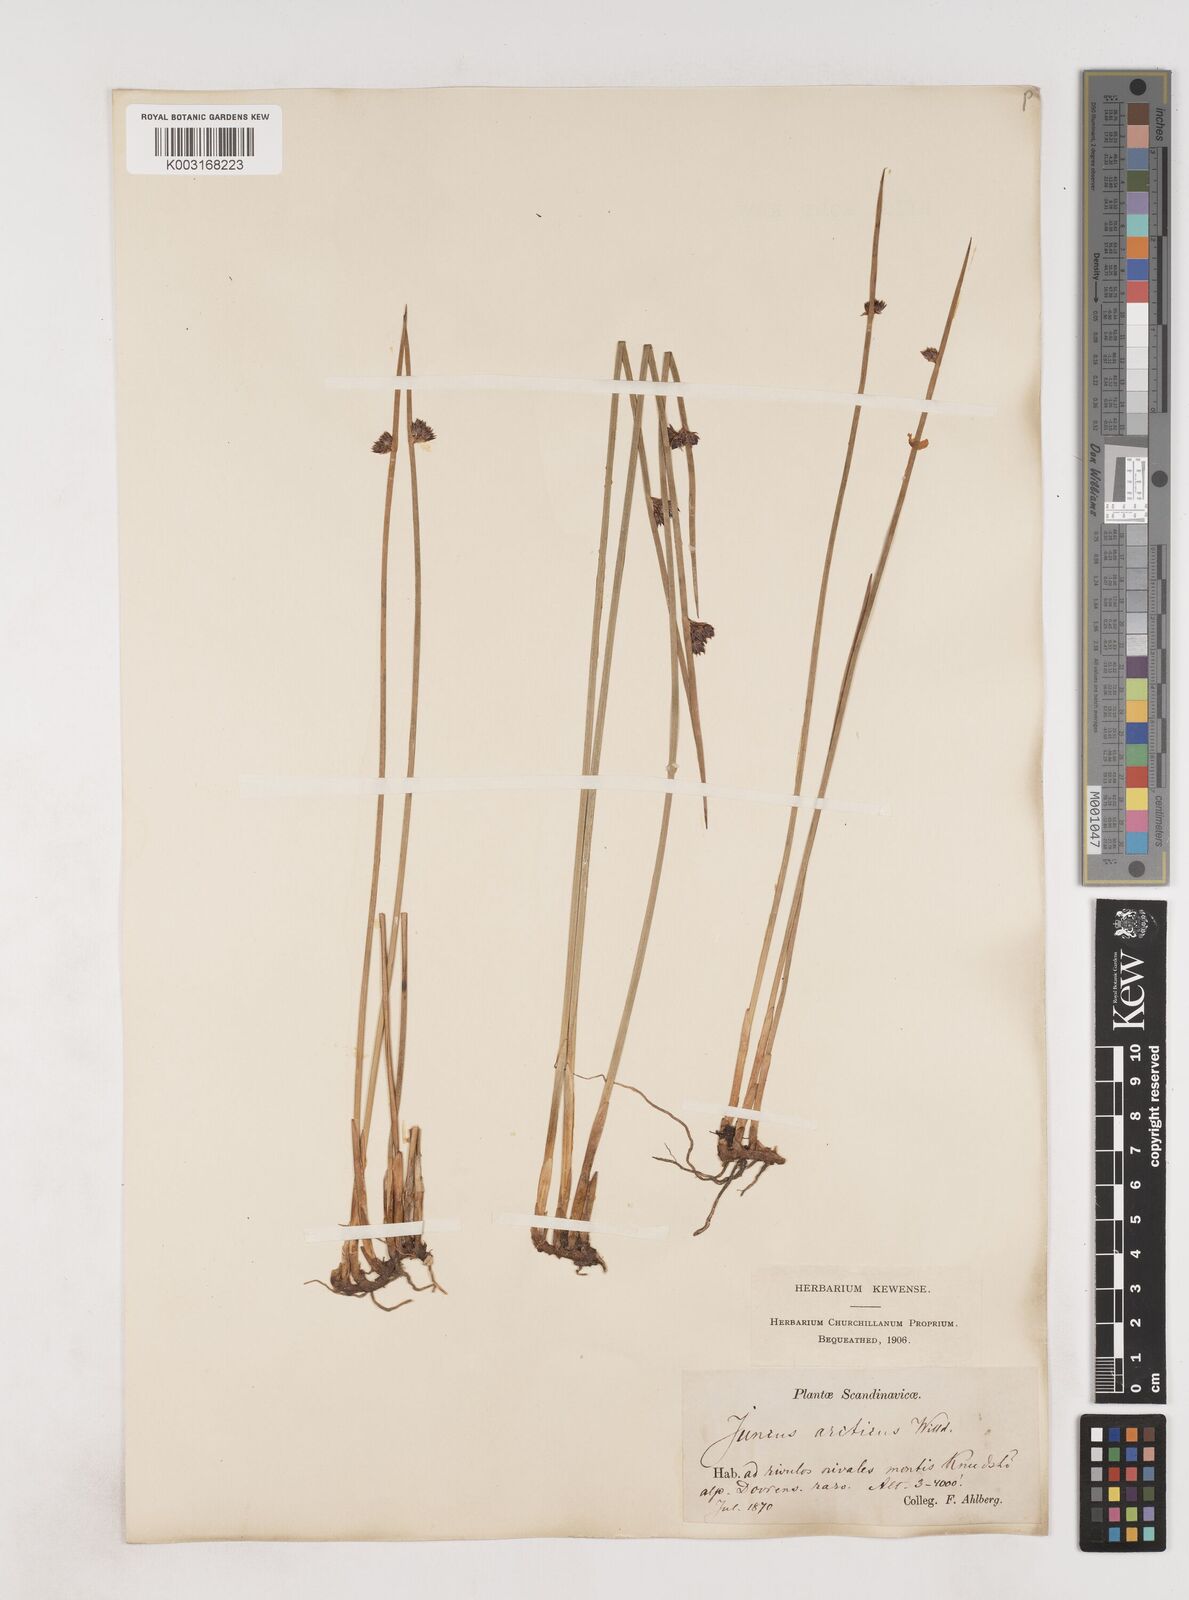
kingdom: Plantae
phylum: Tracheophyta
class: Liliopsida
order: Poales
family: Juncaceae
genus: Juncus
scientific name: Juncus arcticus
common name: Arctic rush
